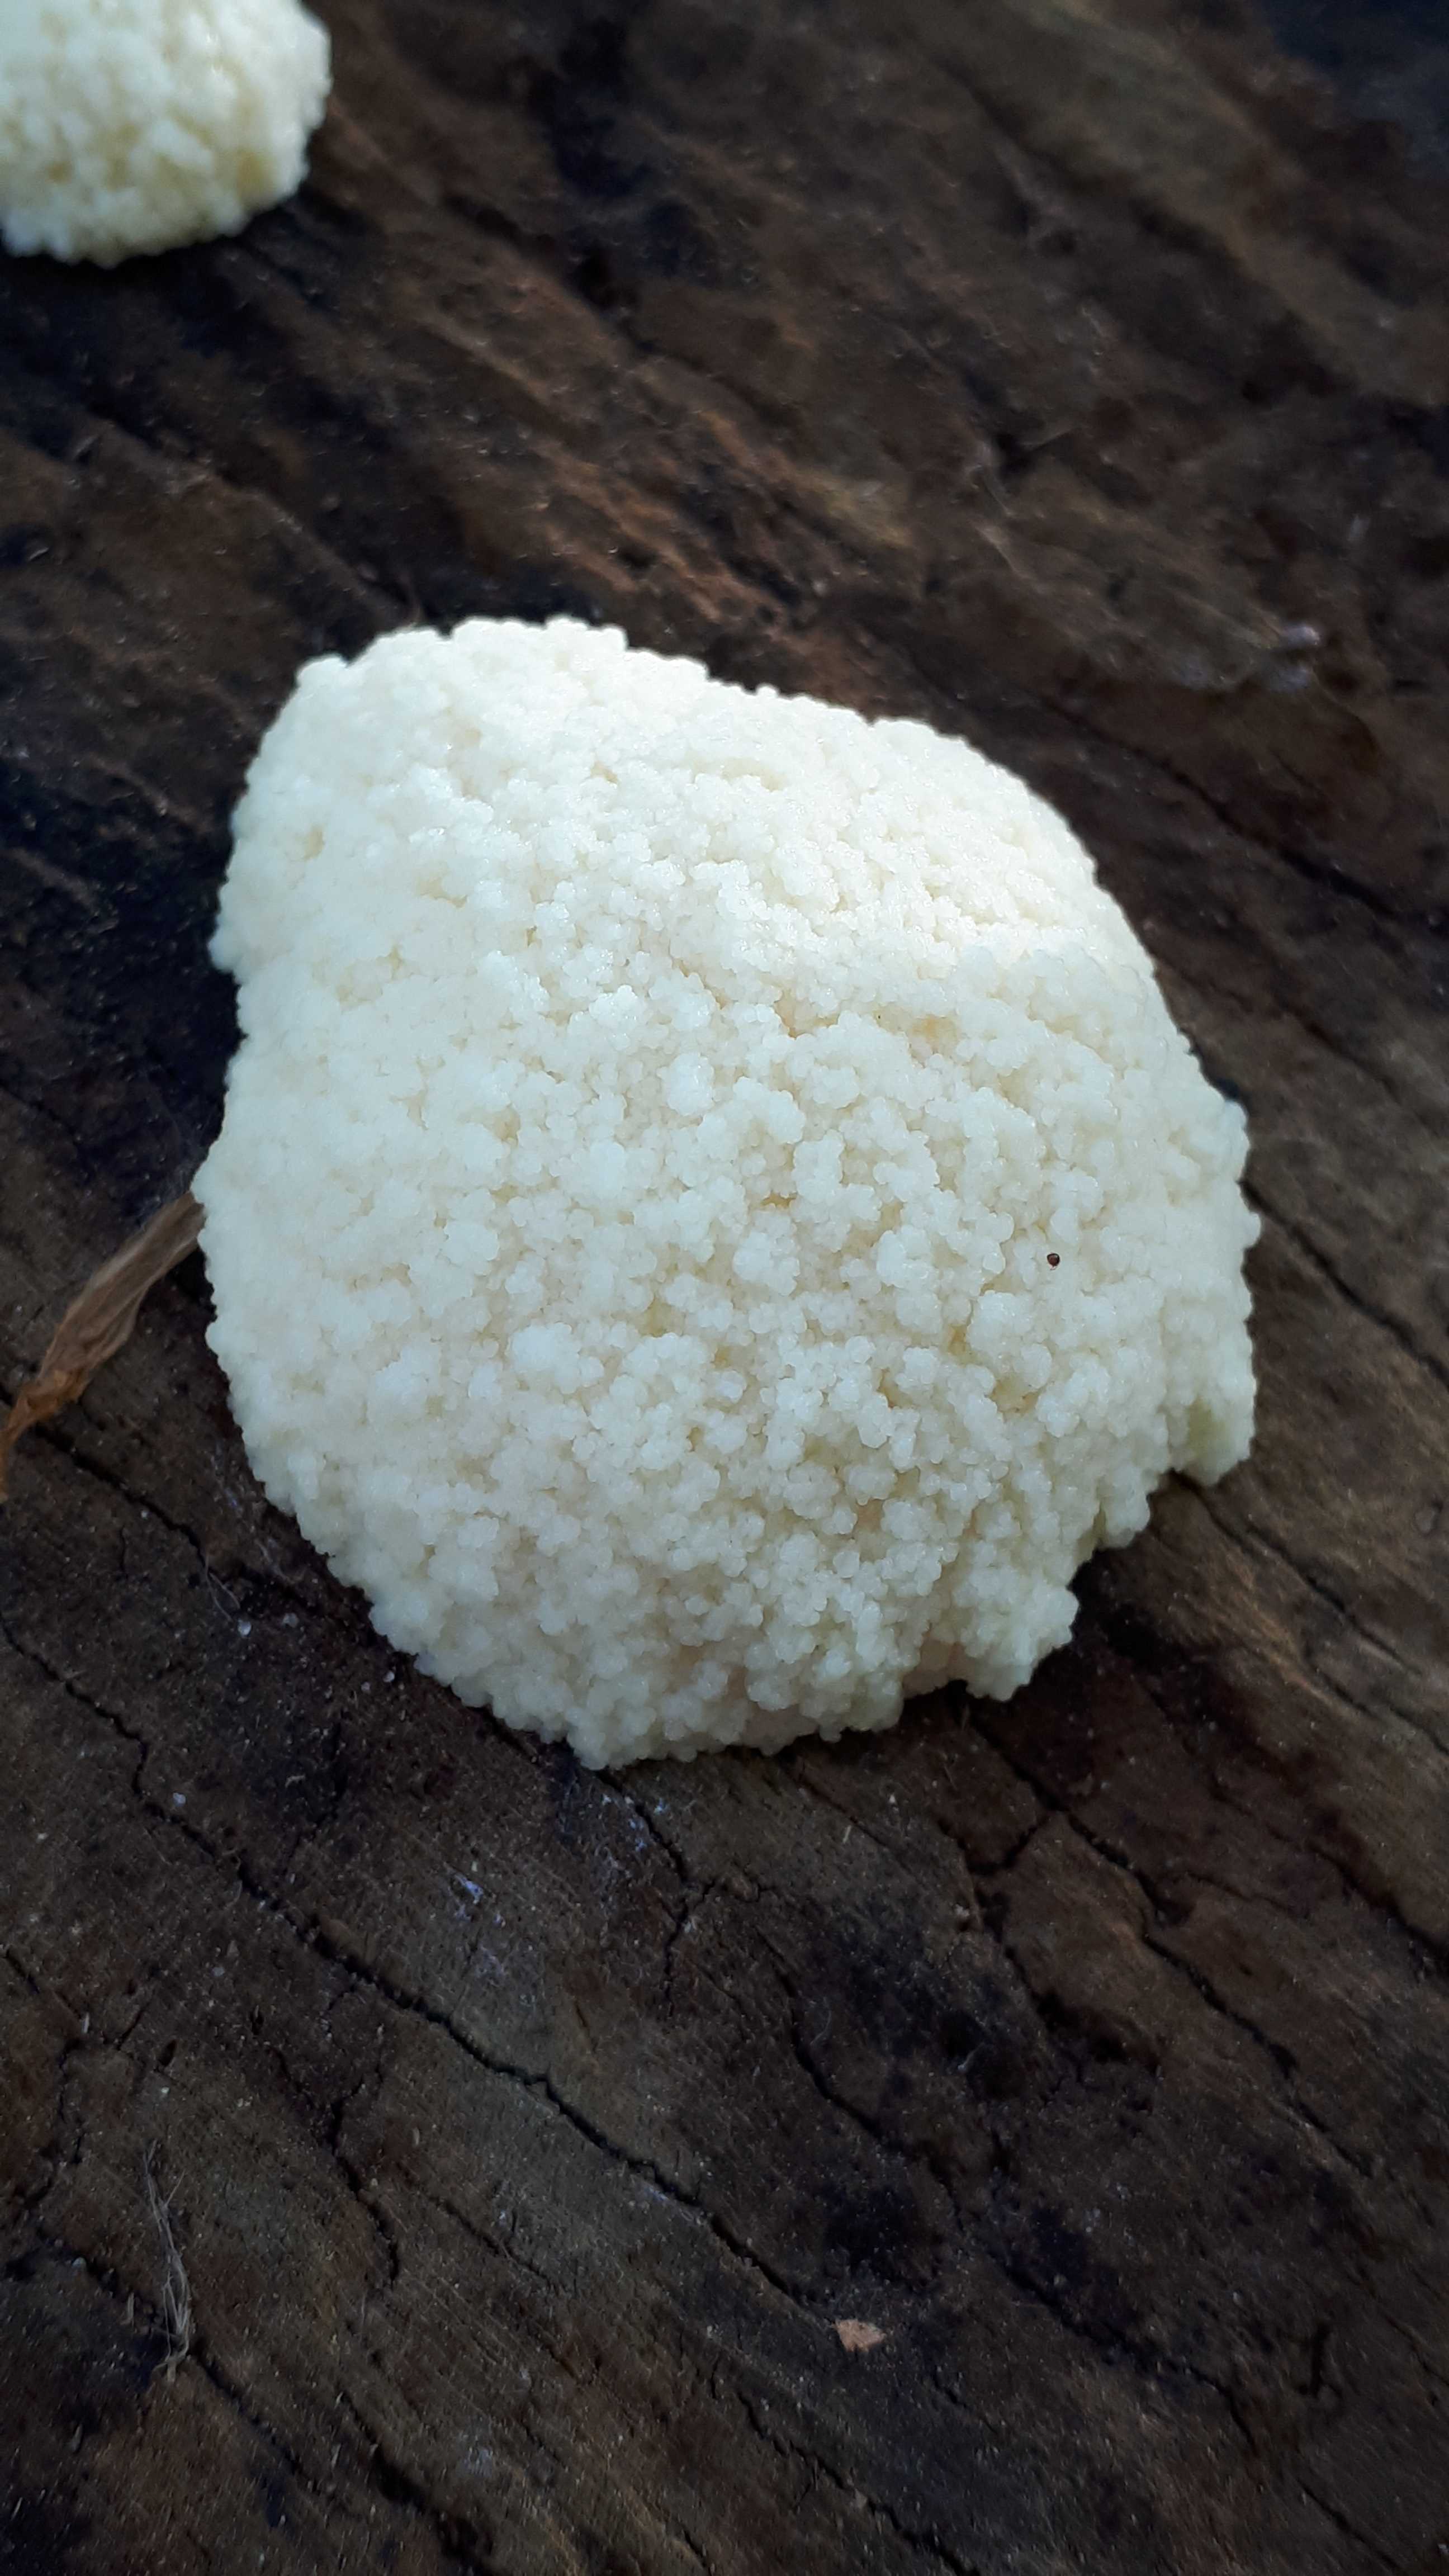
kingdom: Protozoa
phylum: Mycetozoa
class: Myxomycetes
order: Cribrariales
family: Tubiferaceae
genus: Reticularia
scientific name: Reticularia
